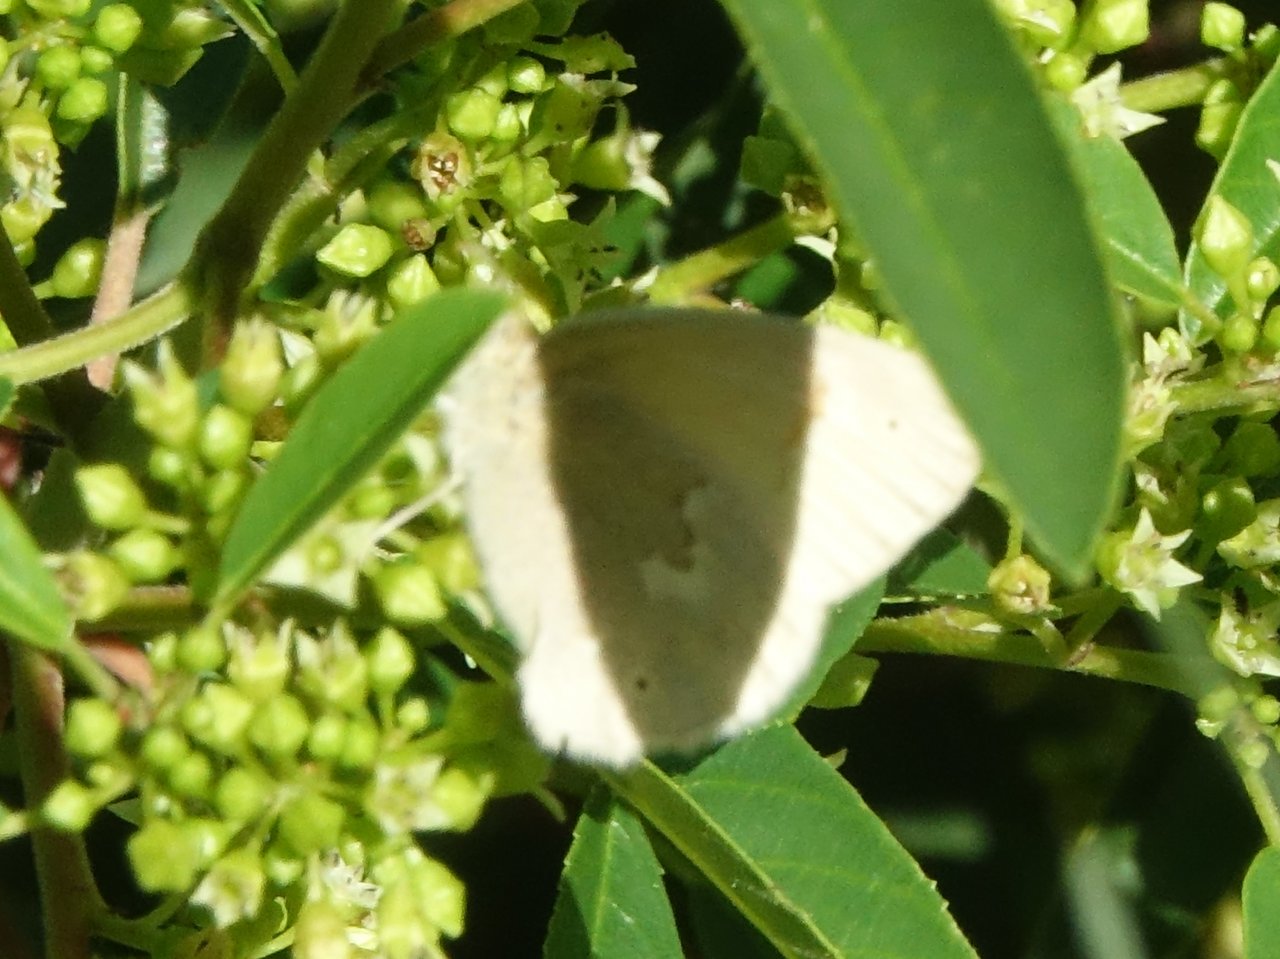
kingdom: Animalia
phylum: Arthropoda
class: Insecta
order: Lepidoptera
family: Nymphalidae
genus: Coenonympha
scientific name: Coenonympha tullia
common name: Large Heath
